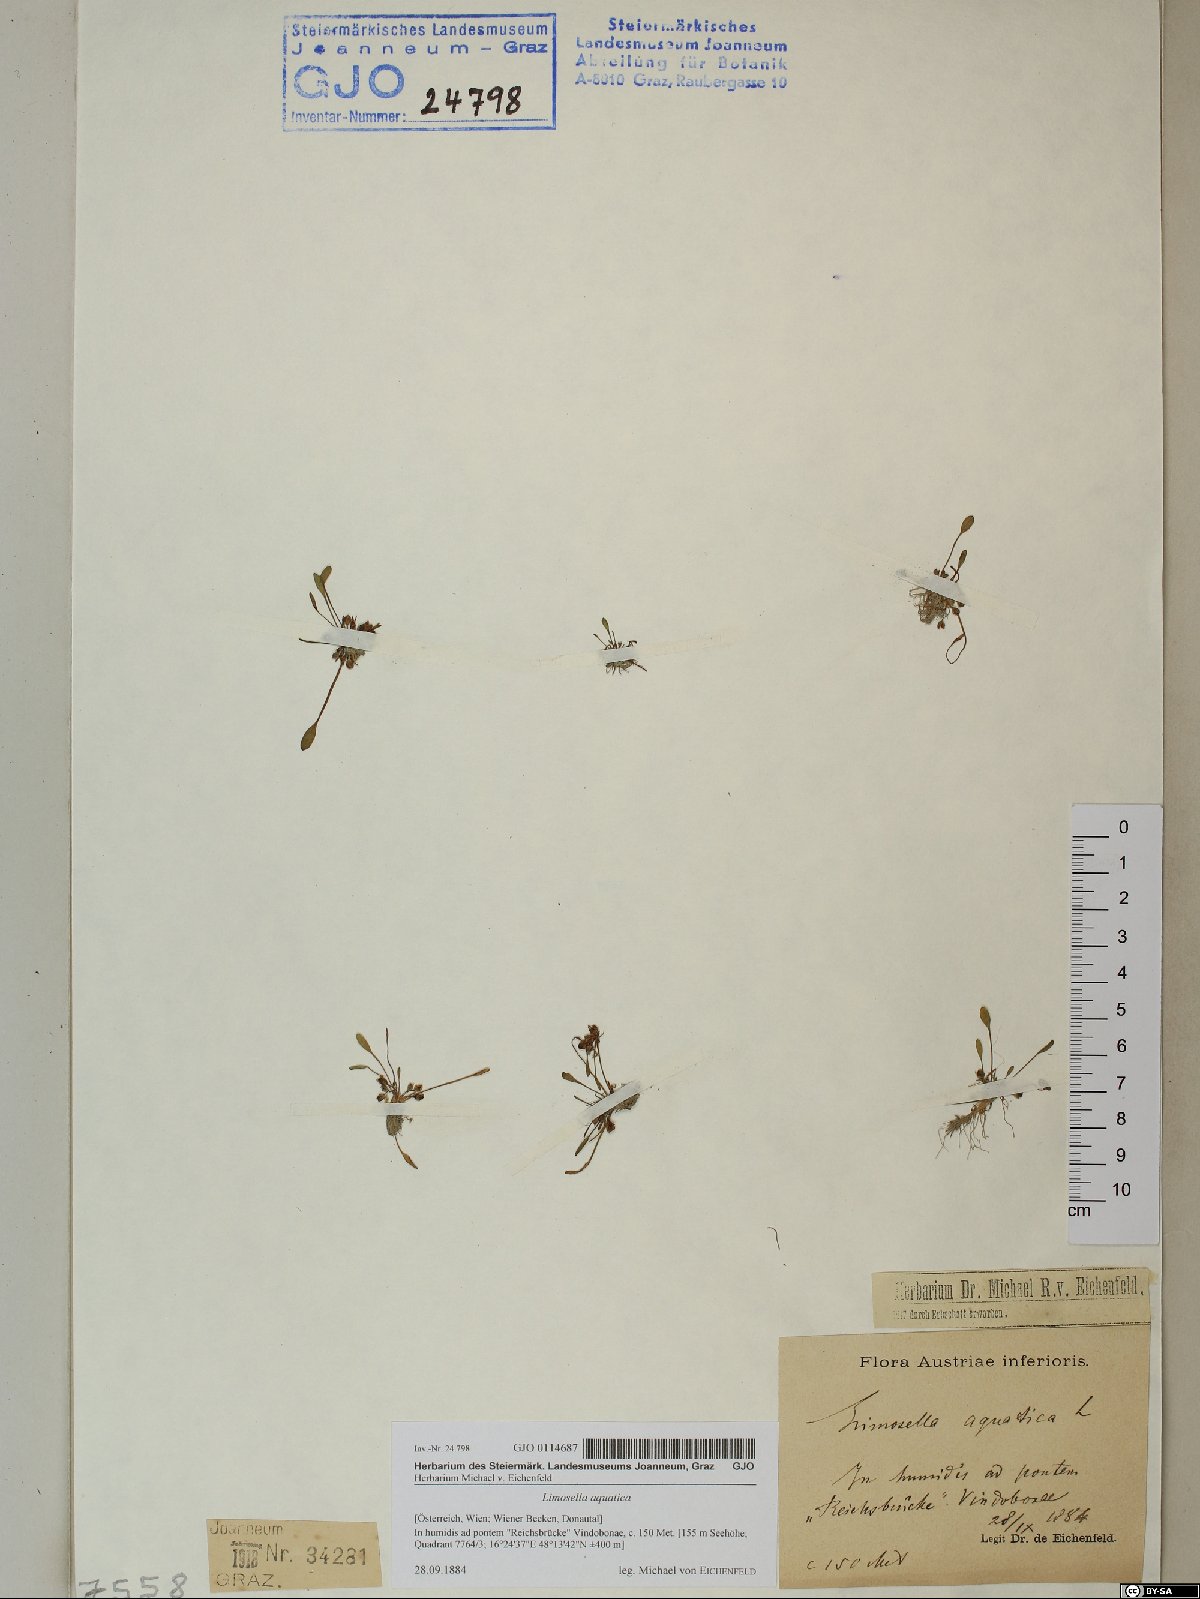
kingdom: Plantae
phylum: Tracheophyta
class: Magnoliopsida
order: Lamiales
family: Scrophulariaceae
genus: Limosella
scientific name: Limosella aquatica
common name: Mudwort
